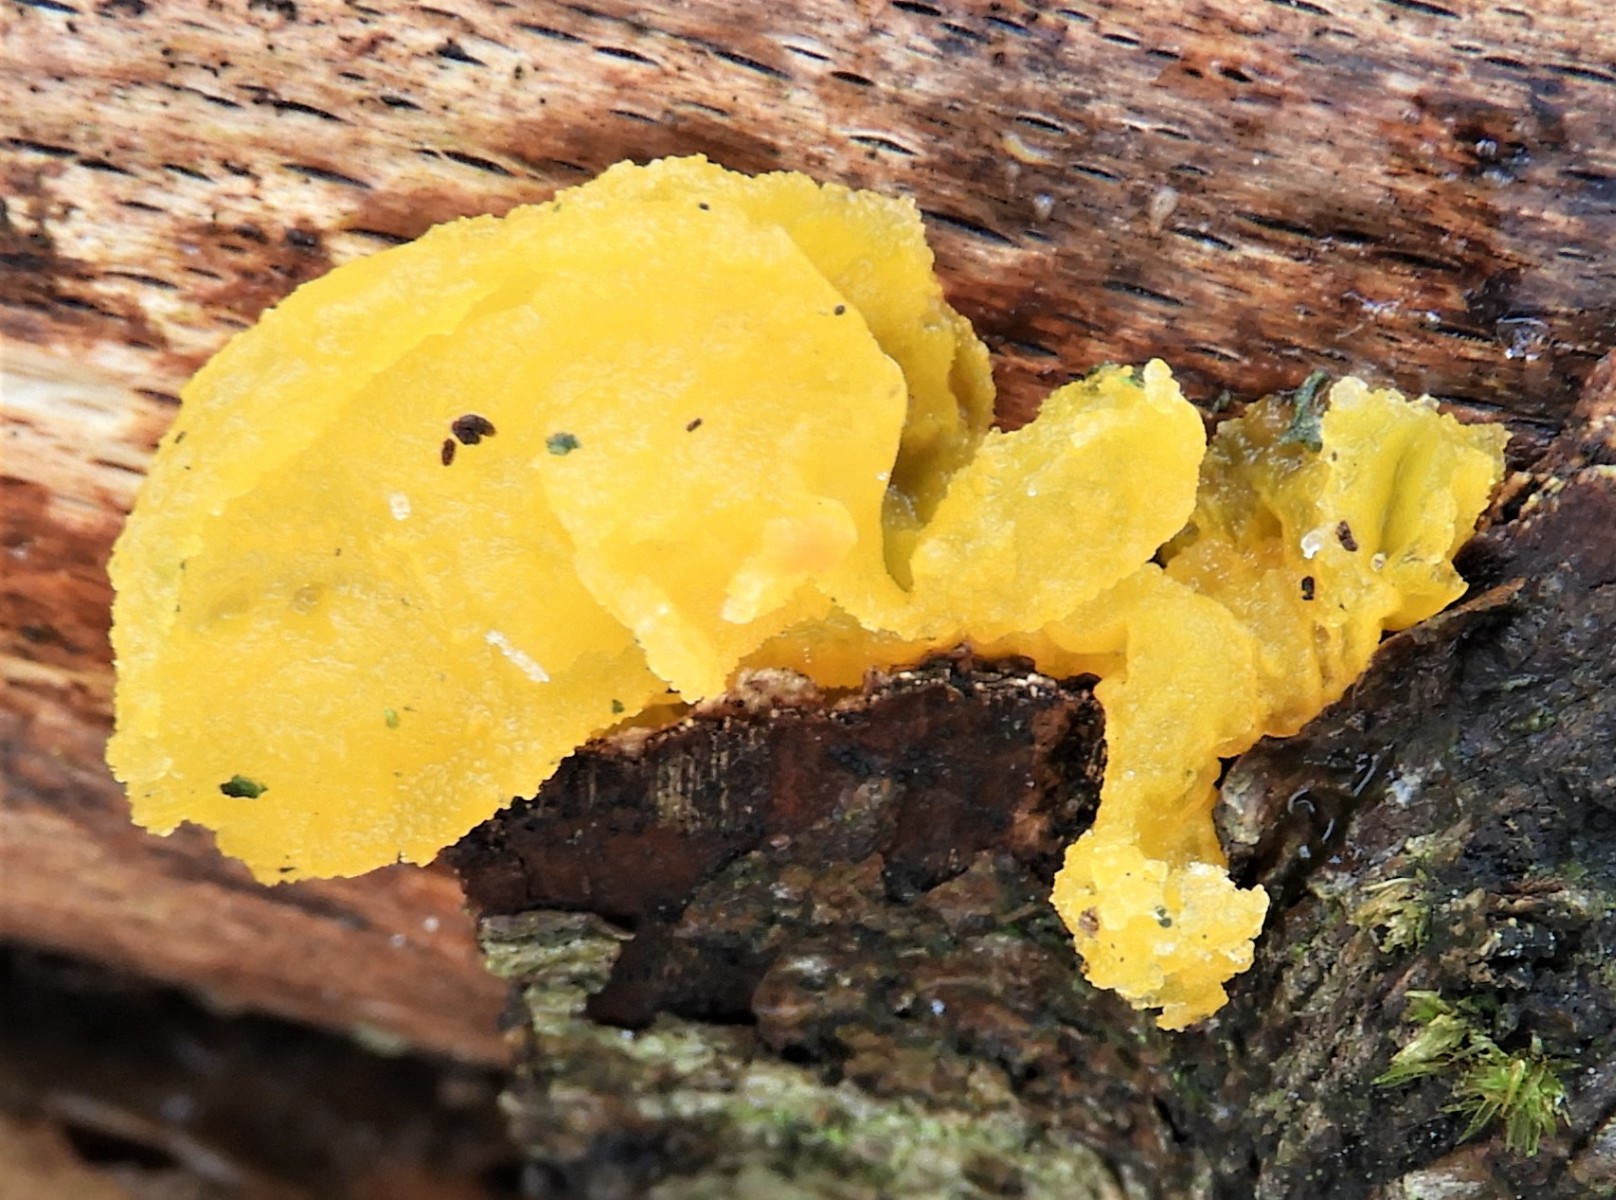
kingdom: Fungi
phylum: Basidiomycota
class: Tremellomycetes
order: Tremellales
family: Tremellaceae
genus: Tremella
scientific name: Tremella mesenterica
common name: gul bævresvamp
